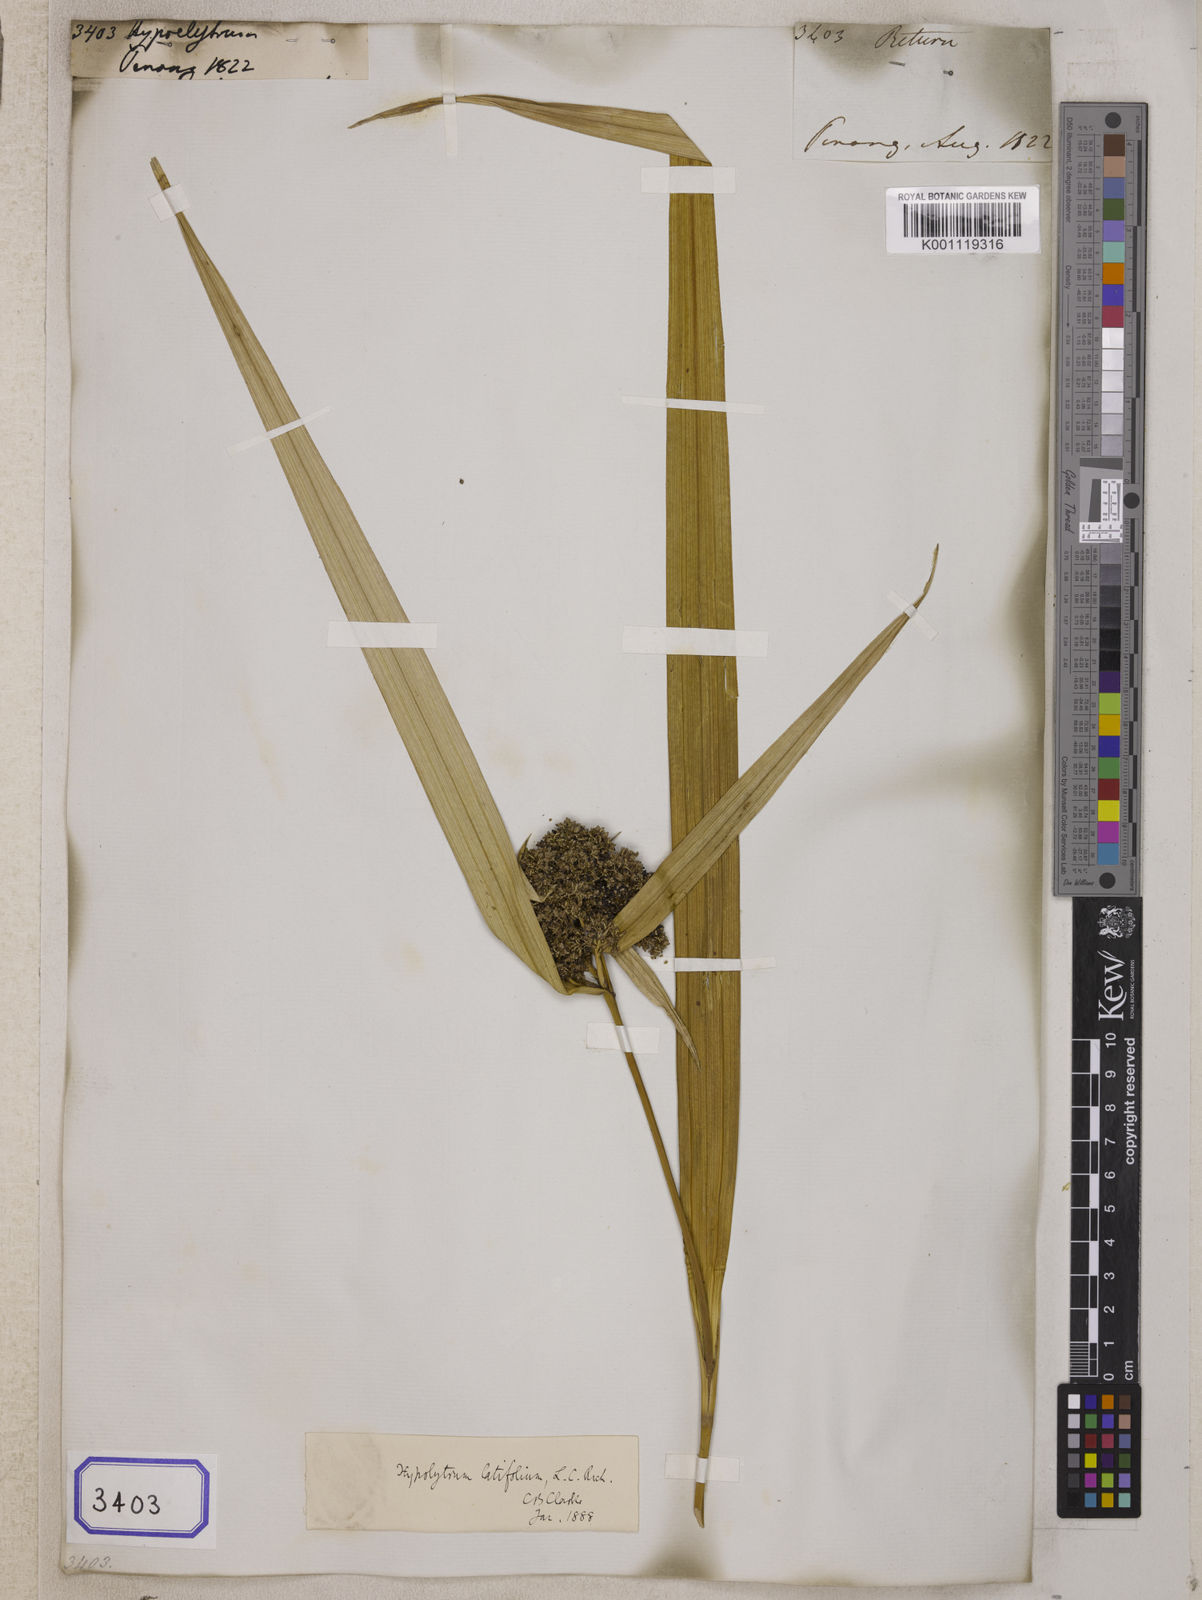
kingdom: Plantae
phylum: Tracheophyta
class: Liliopsida
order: Poales
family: Cyperaceae
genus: Hypolytrum
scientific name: Hypolytrum
